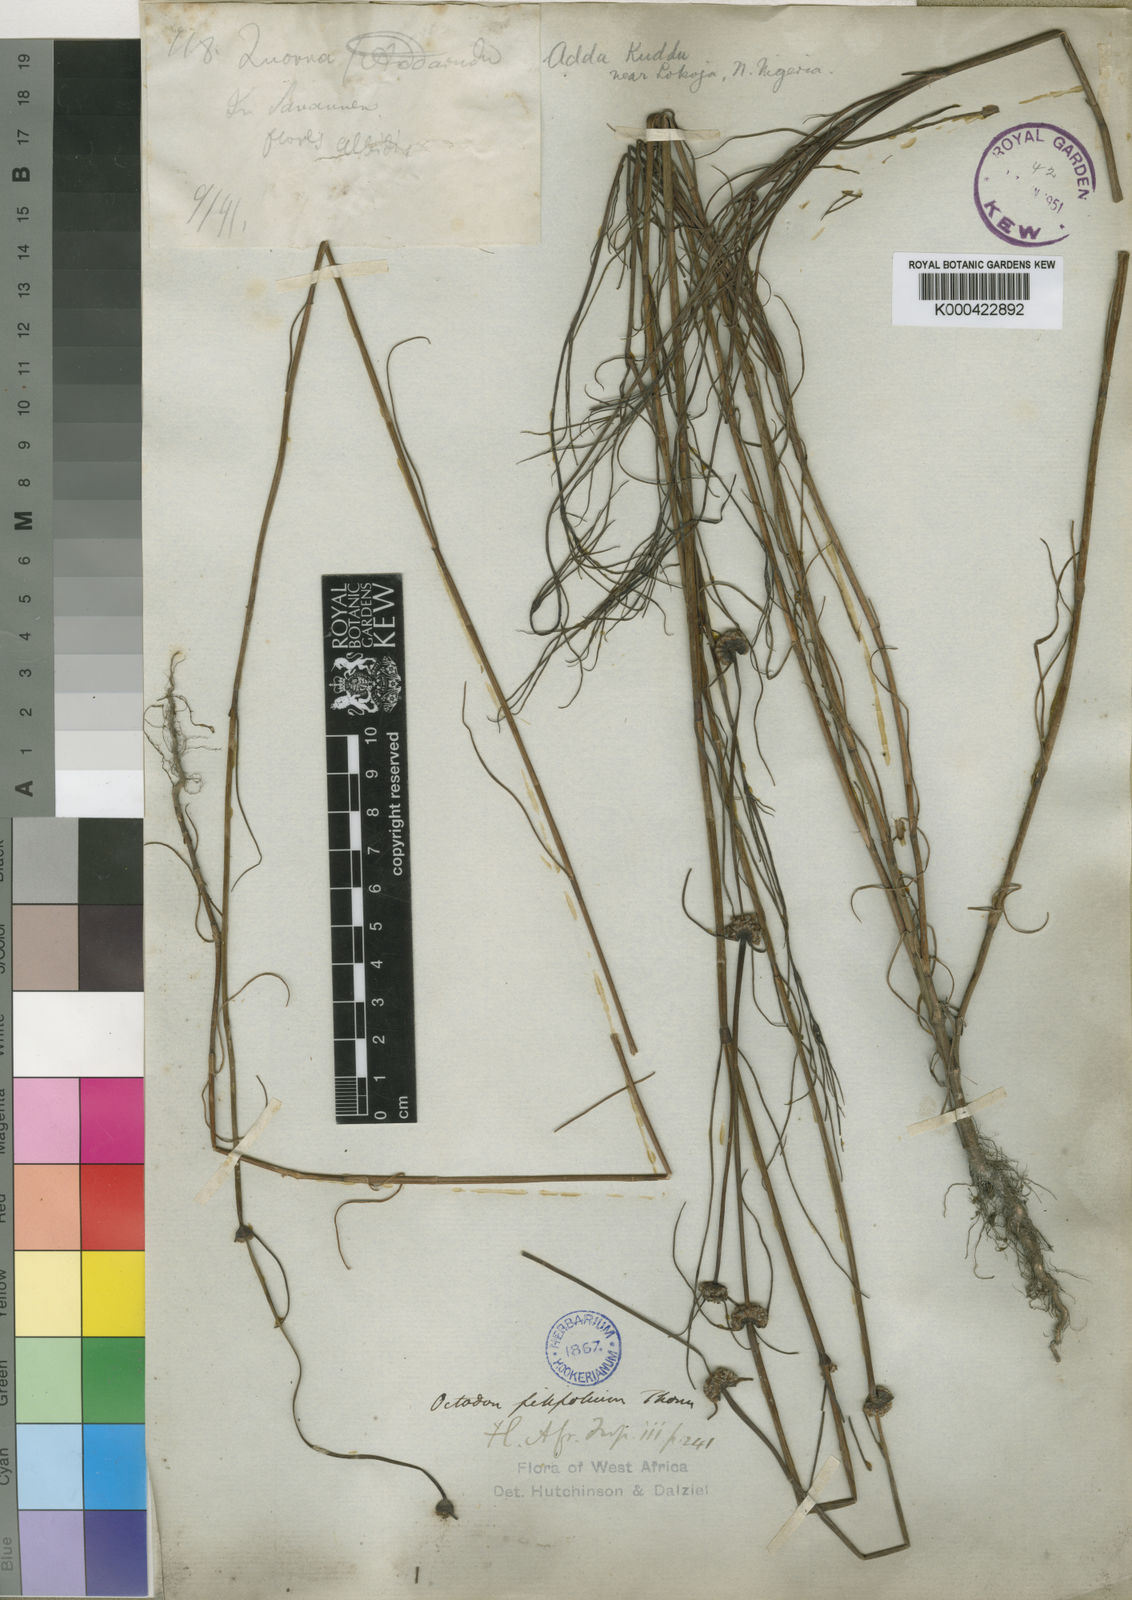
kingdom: Plantae
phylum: Tracheophyta
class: Magnoliopsida
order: Gentianales
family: Rubiaceae
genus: Spermacoce
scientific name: Spermacoce filifolia
